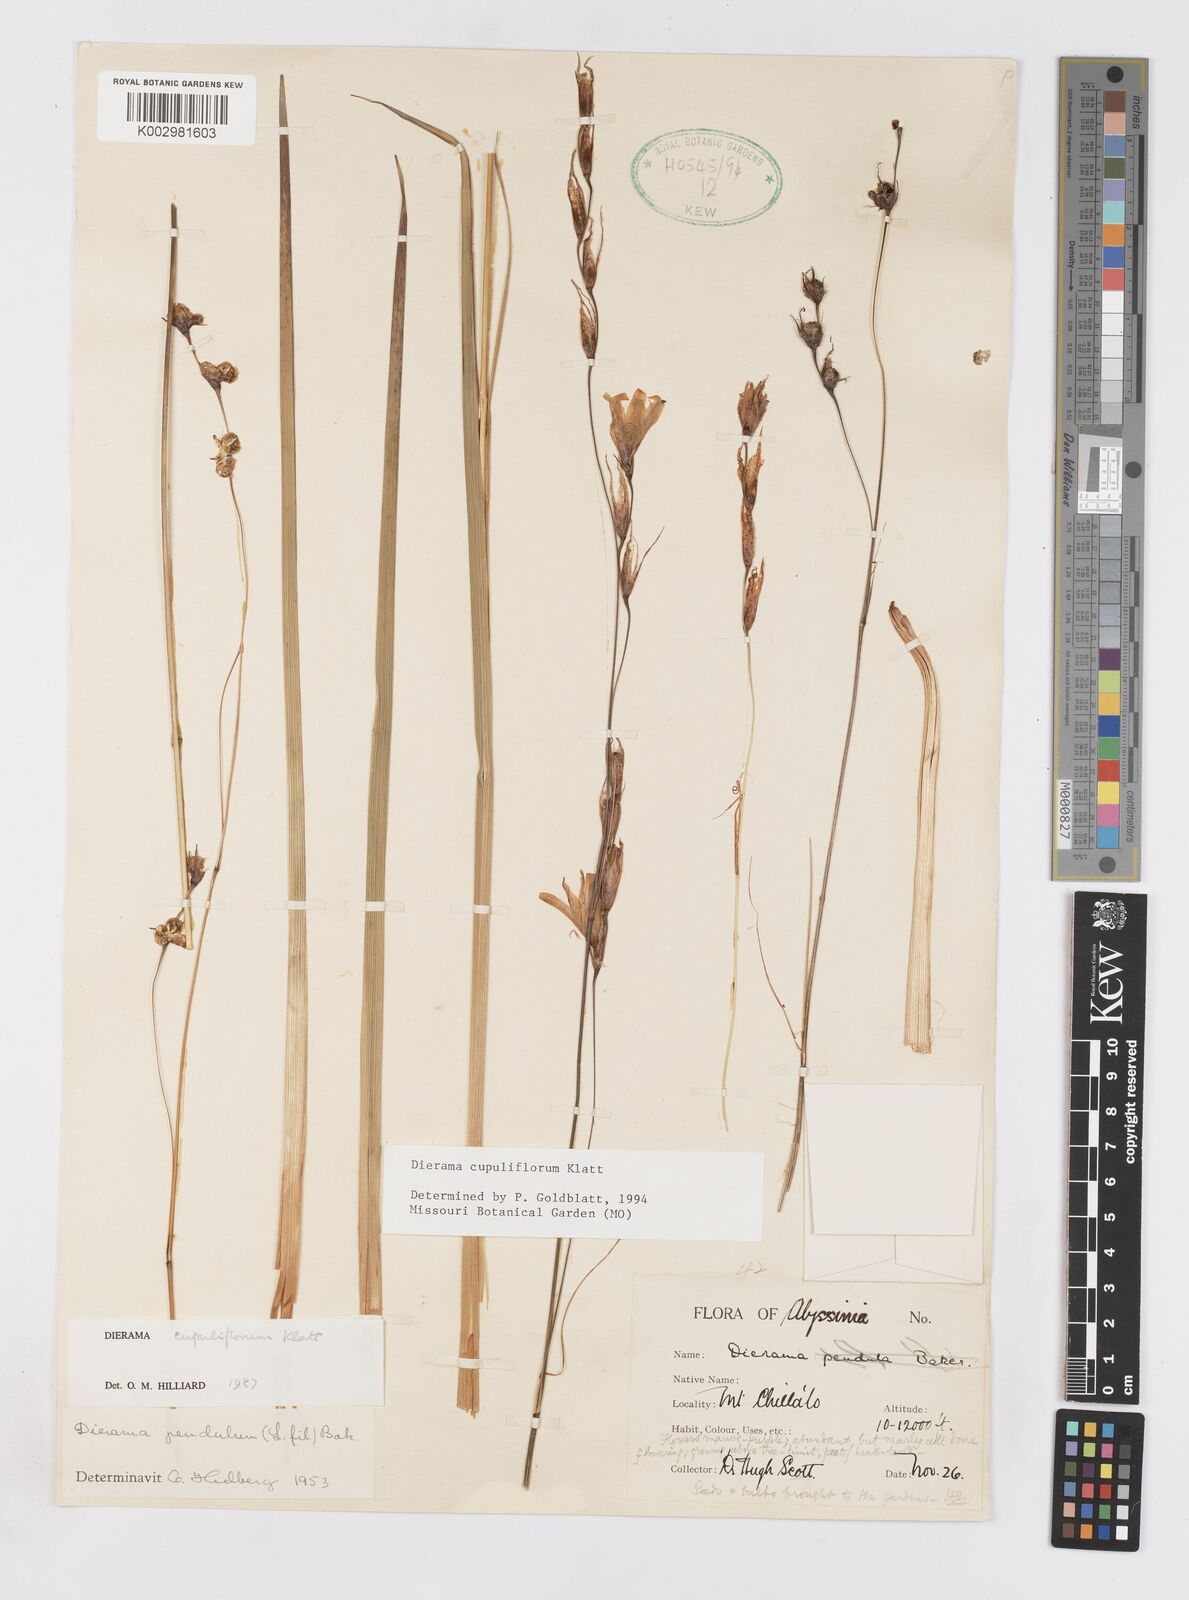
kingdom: Plantae
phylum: Tracheophyta
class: Liliopsida
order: Asparagales
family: Iridaceae
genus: Dierama
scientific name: Dierama cupuliflorum
